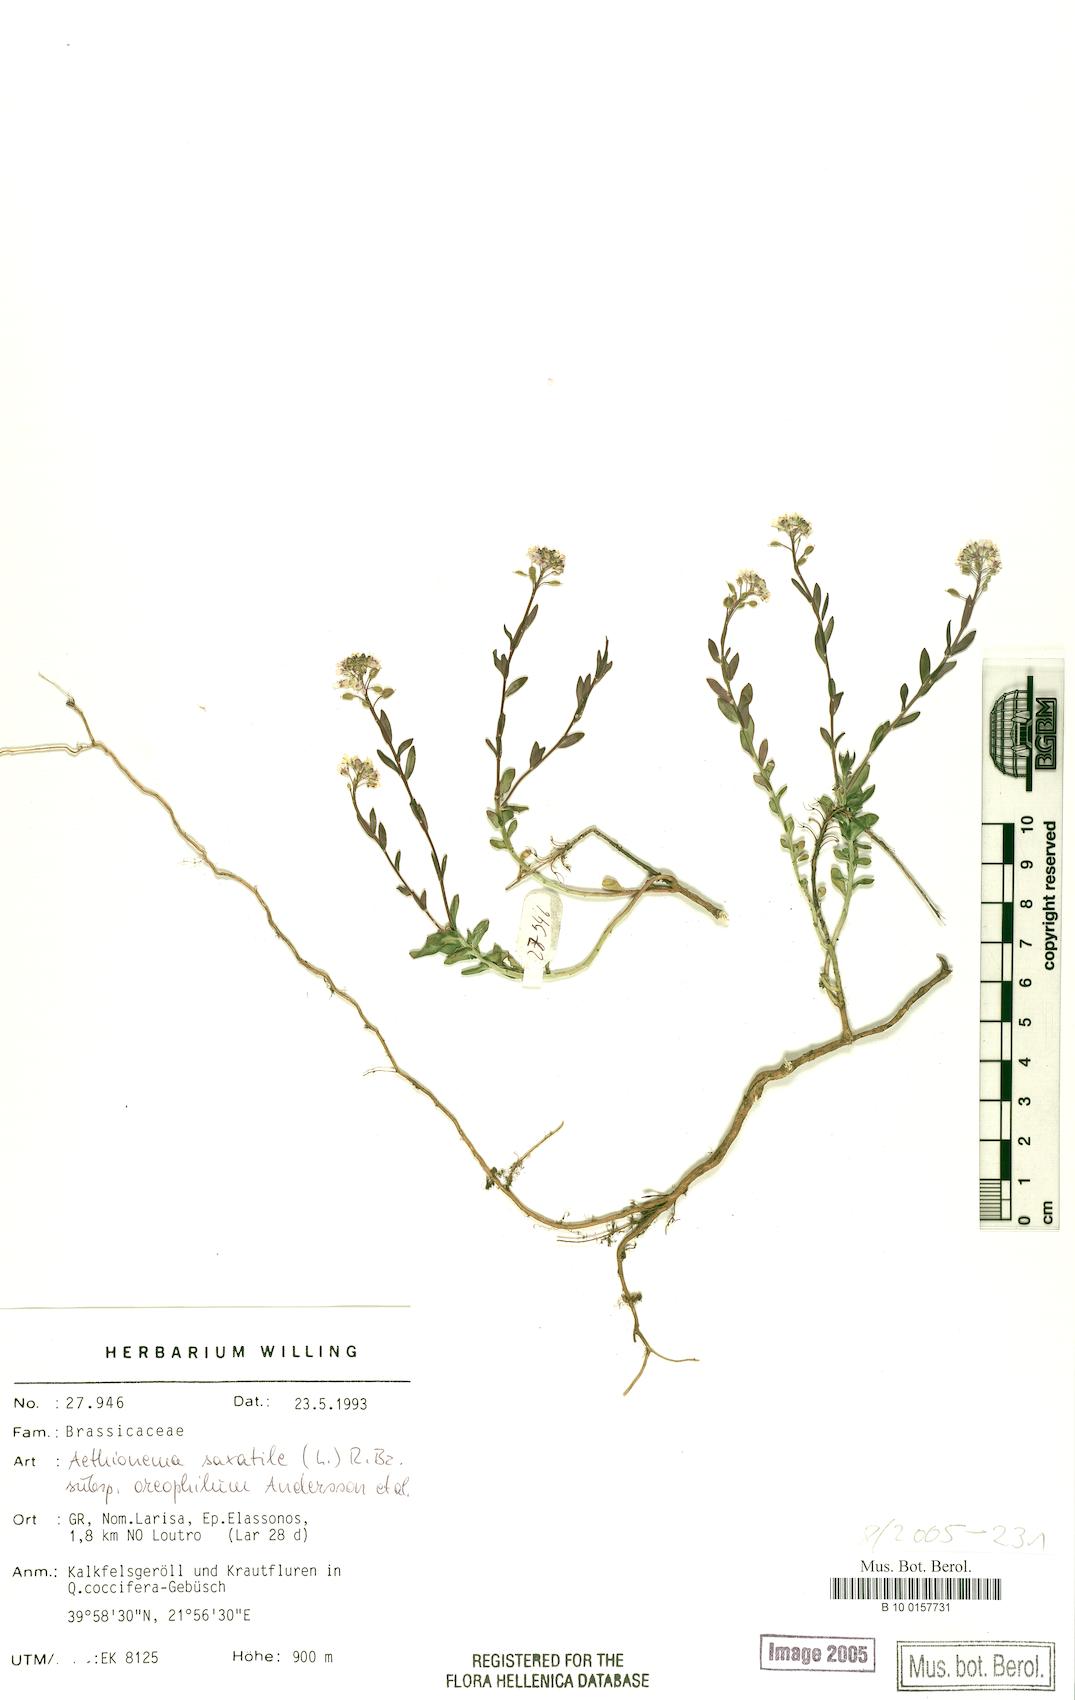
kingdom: Plantae
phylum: Tracheophyta
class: Magnoliopsida
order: Brassicales
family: Brassicaceae
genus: Aethionema
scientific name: Aethionema saxatile
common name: Burnt candytuft
